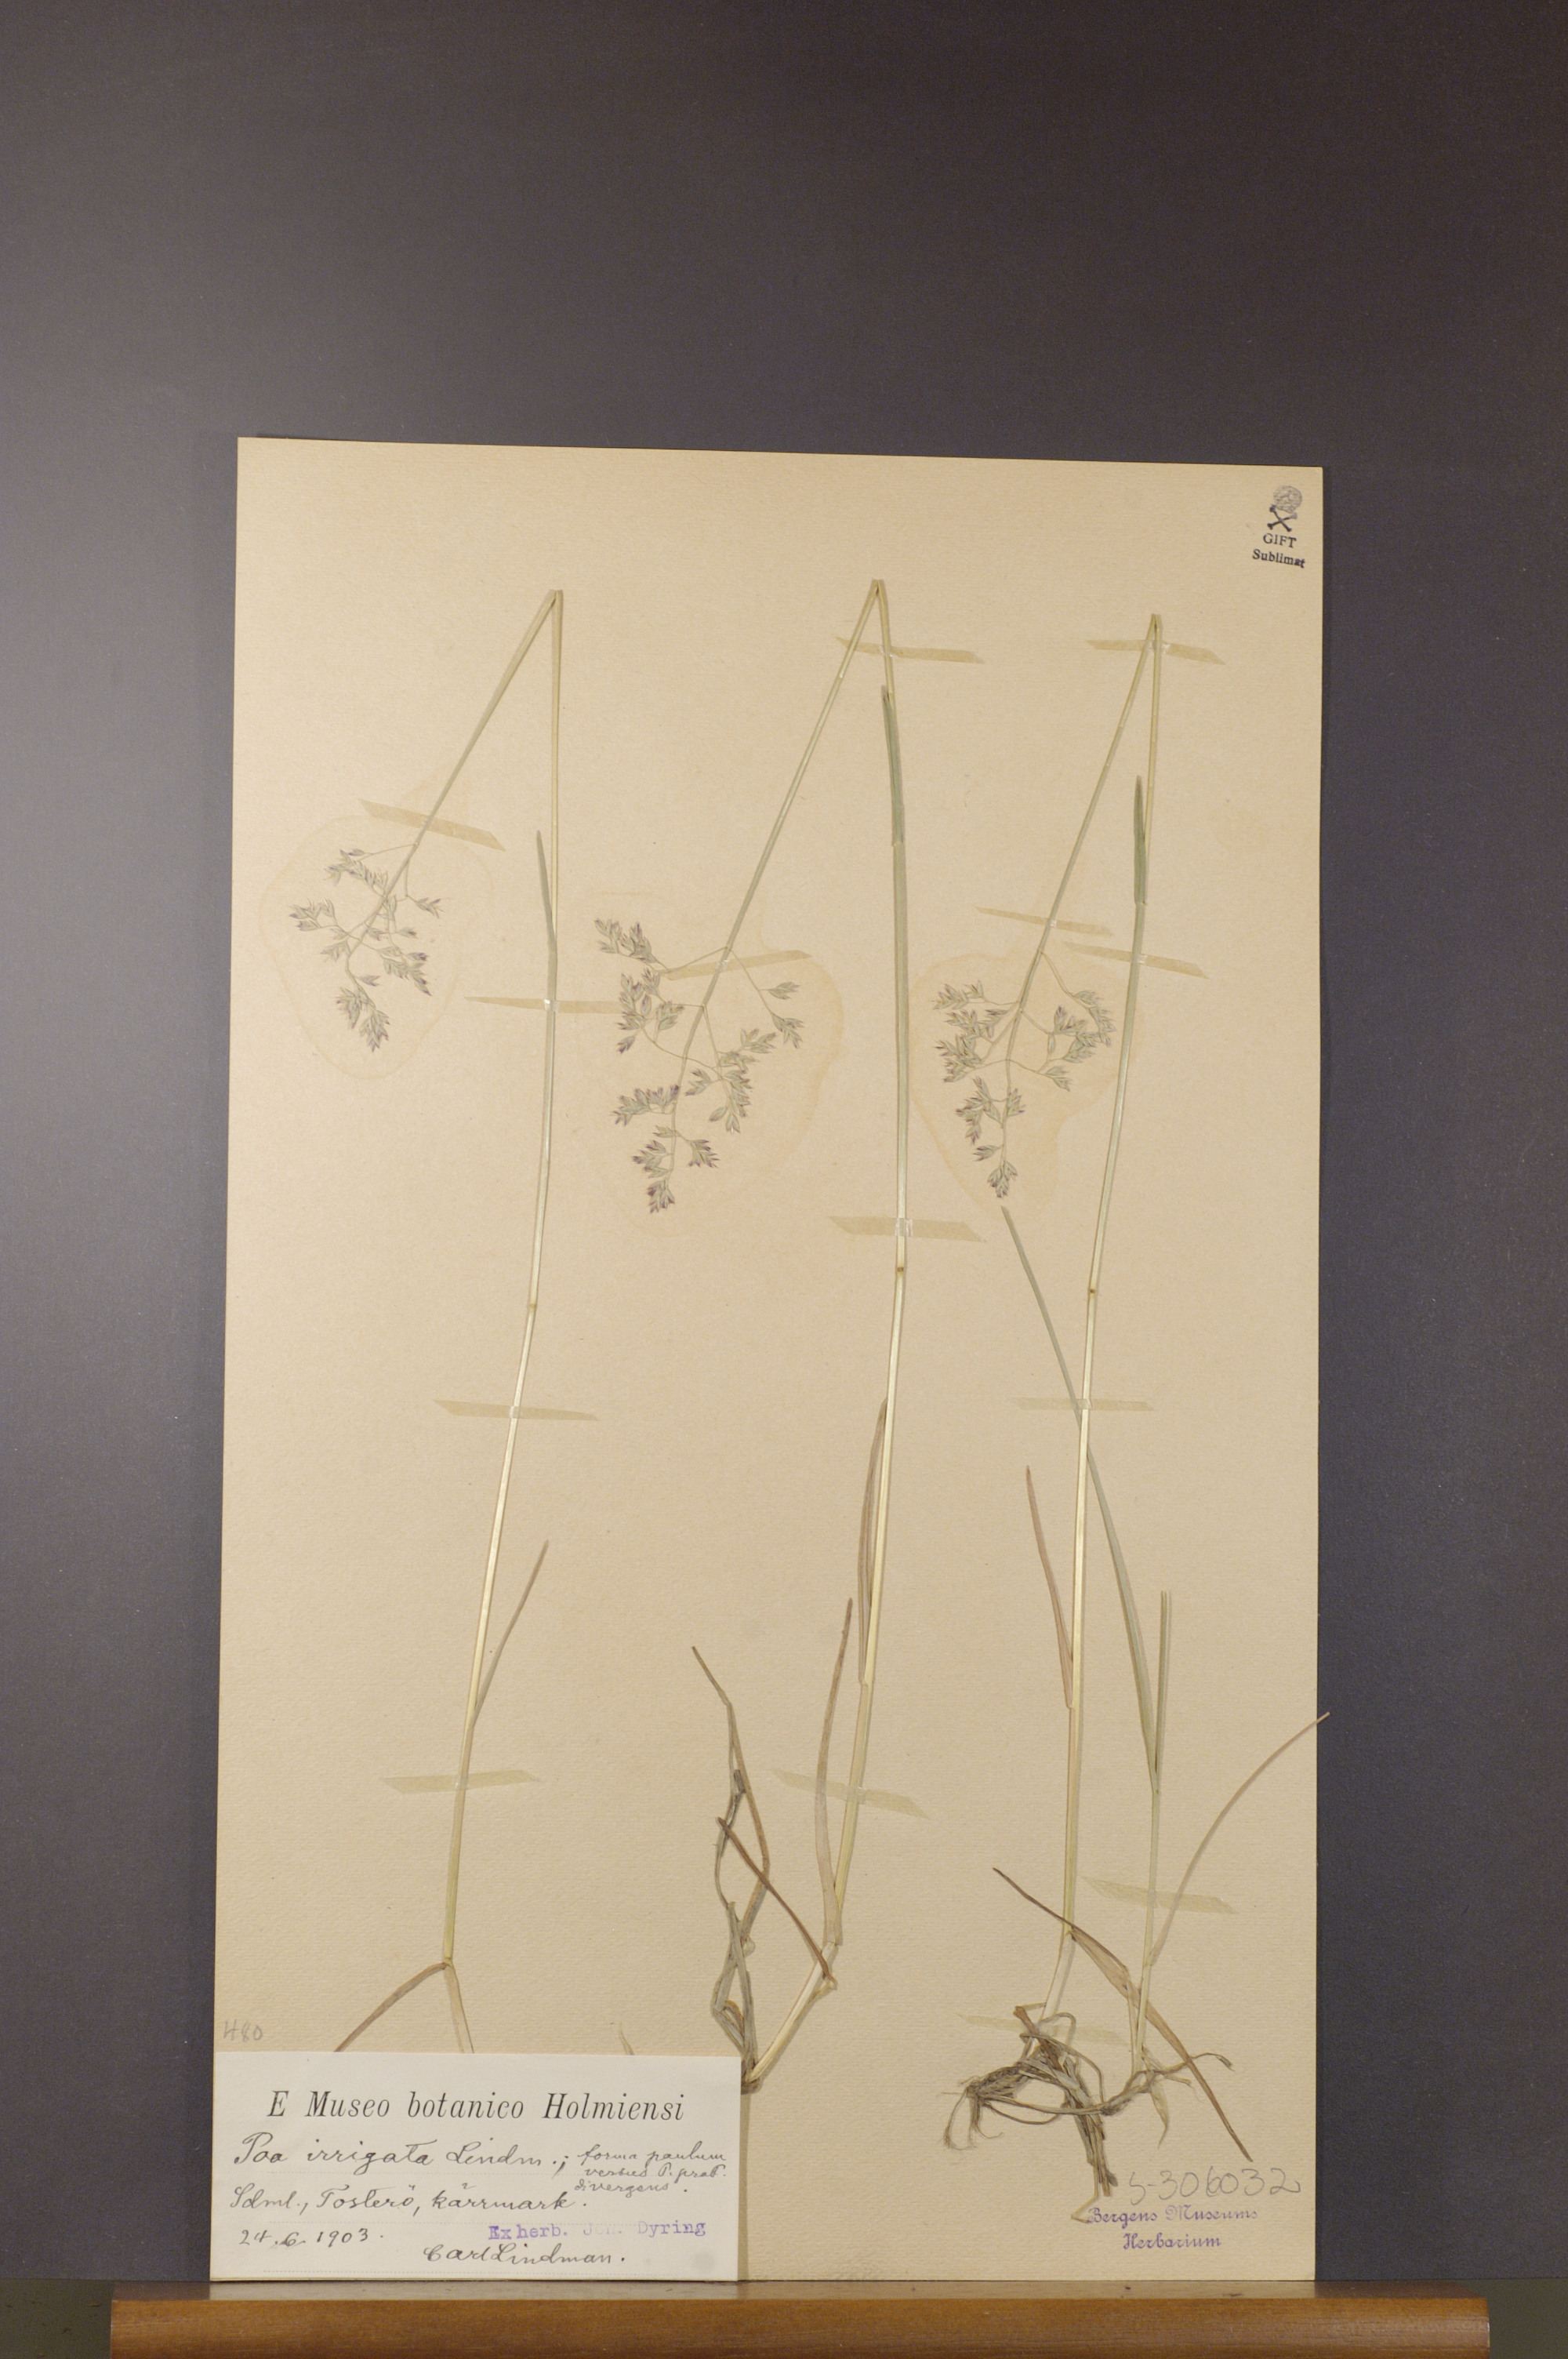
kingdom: Plantae
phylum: Tracheophyta
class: Liliopsida
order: Poales
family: Poaceae
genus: Poa
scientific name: Poa humilis
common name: Spreading meadow-grass
